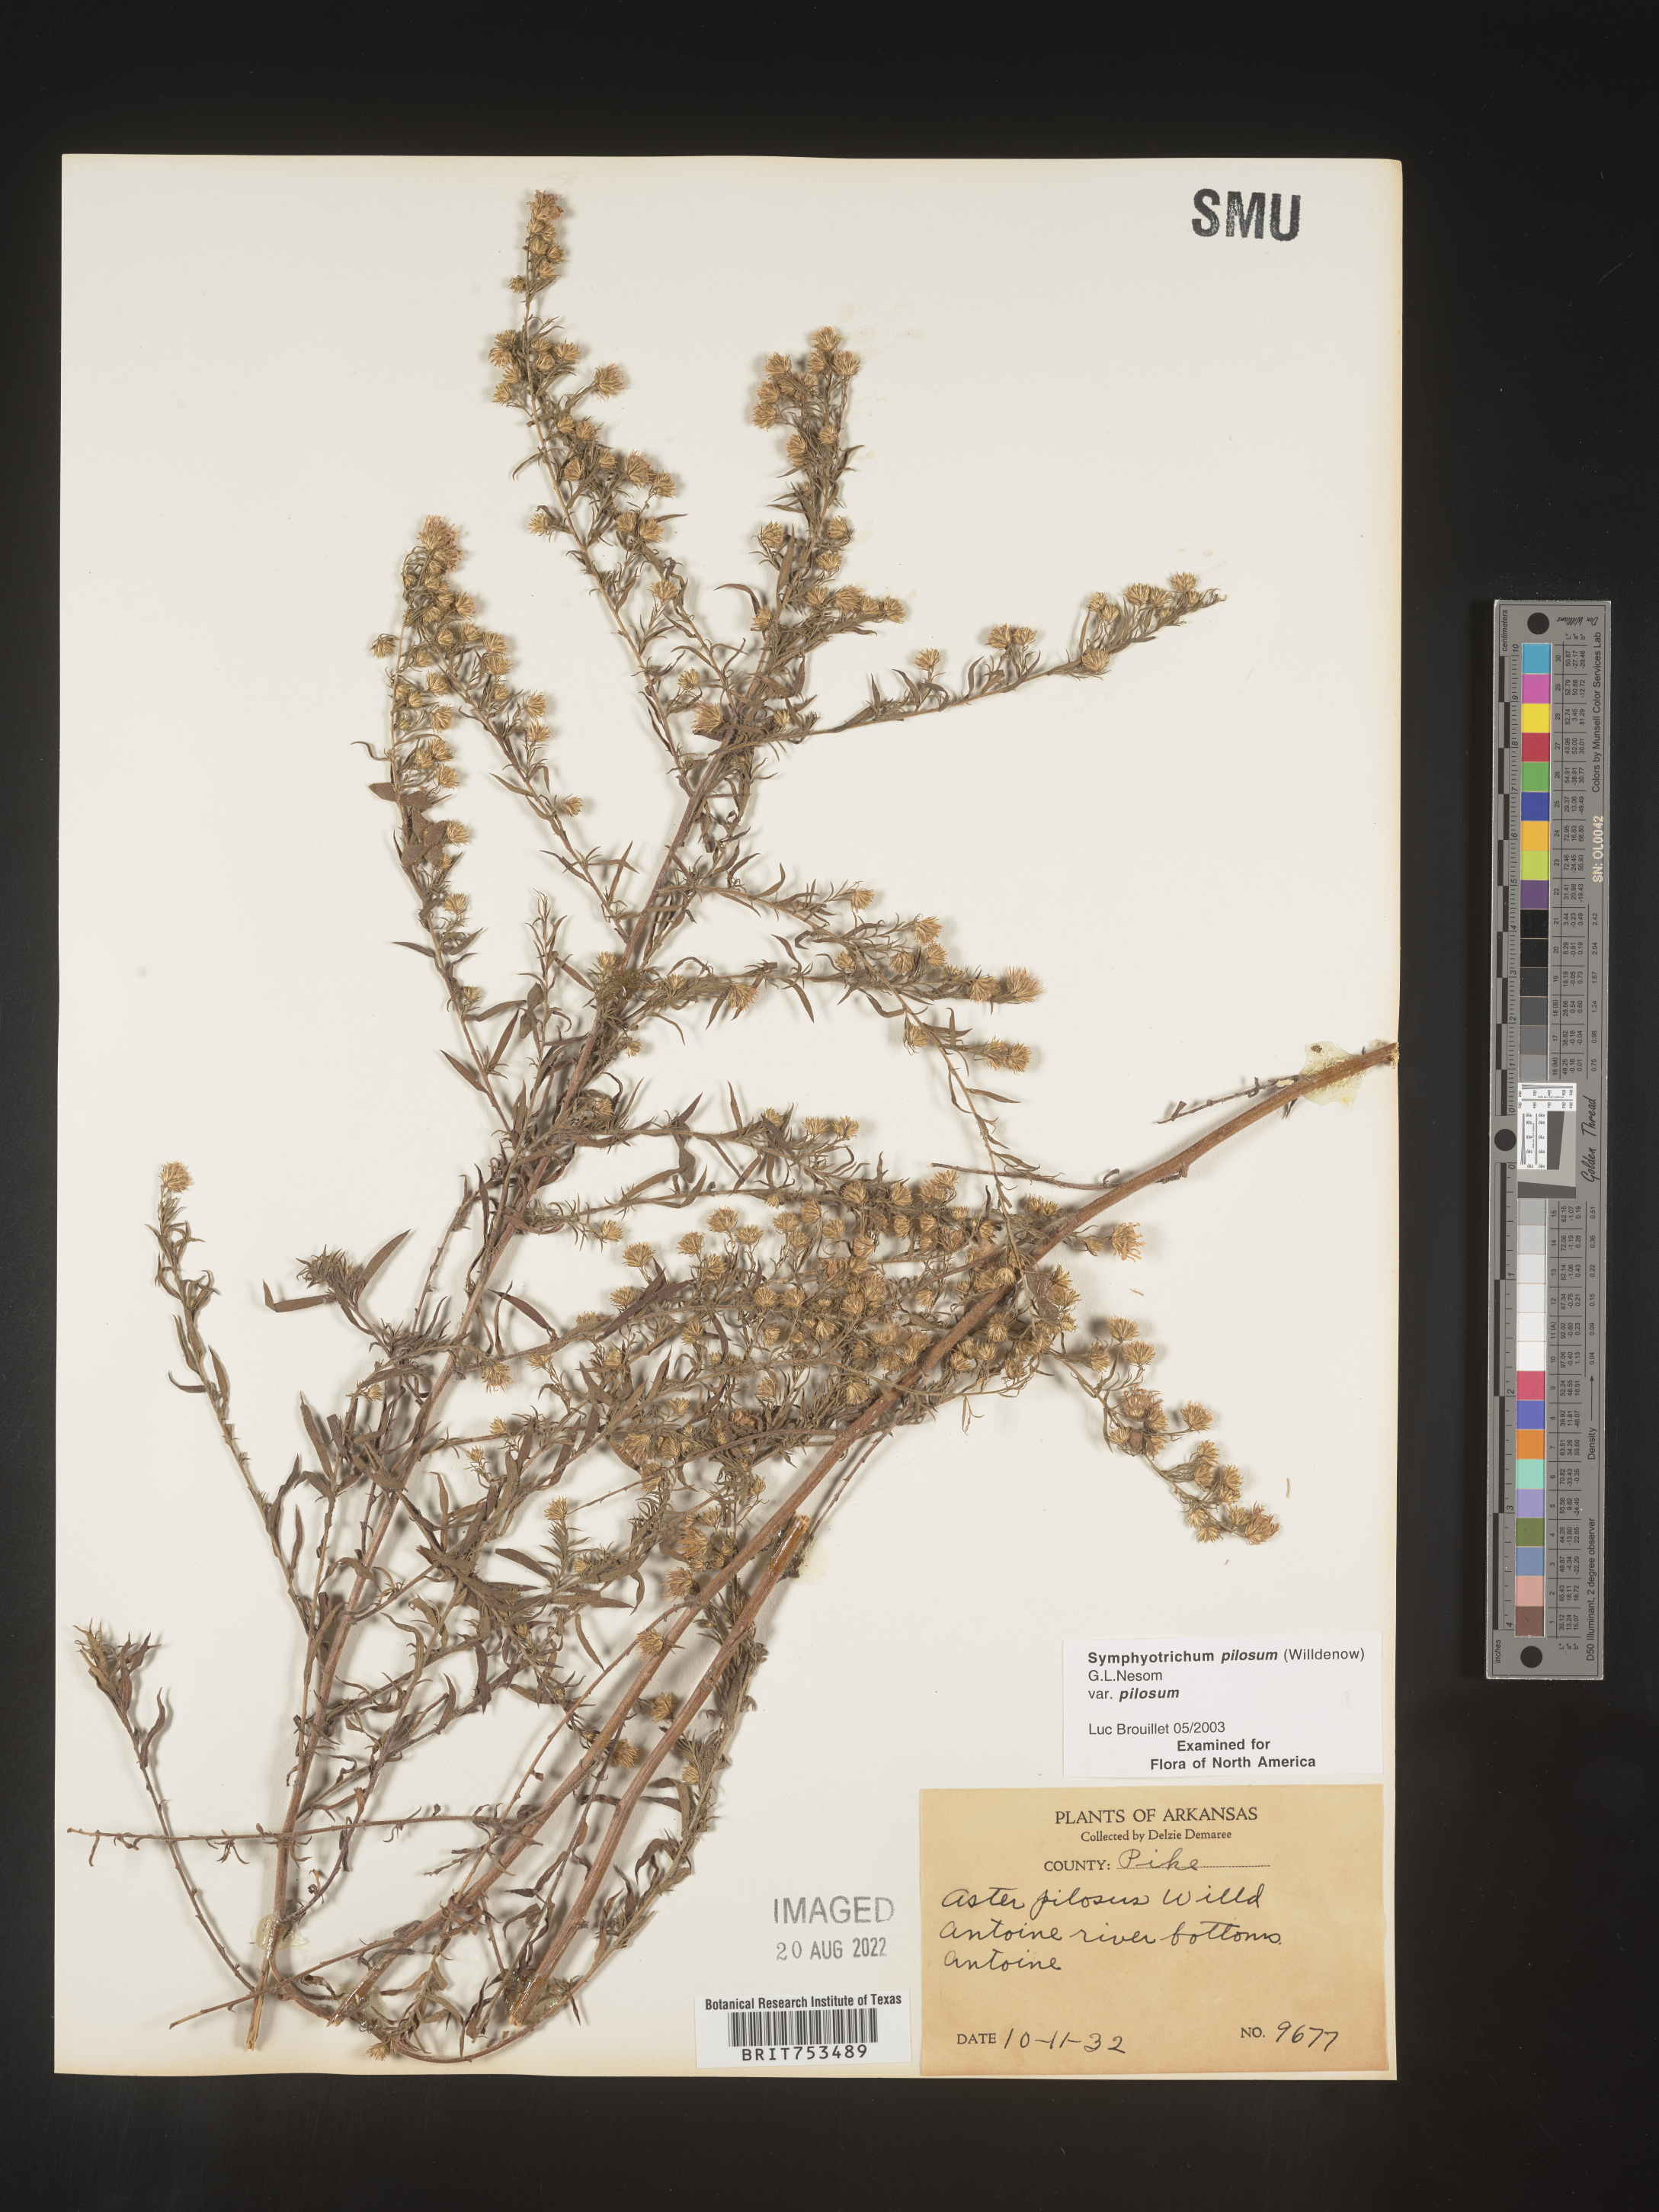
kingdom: Plantae
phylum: Tracheophyta
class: Magnoliopsida
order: Asterales
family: Asteraceae
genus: Symphyotrichum
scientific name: Symphyotrichum pilosum
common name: Awl aster
